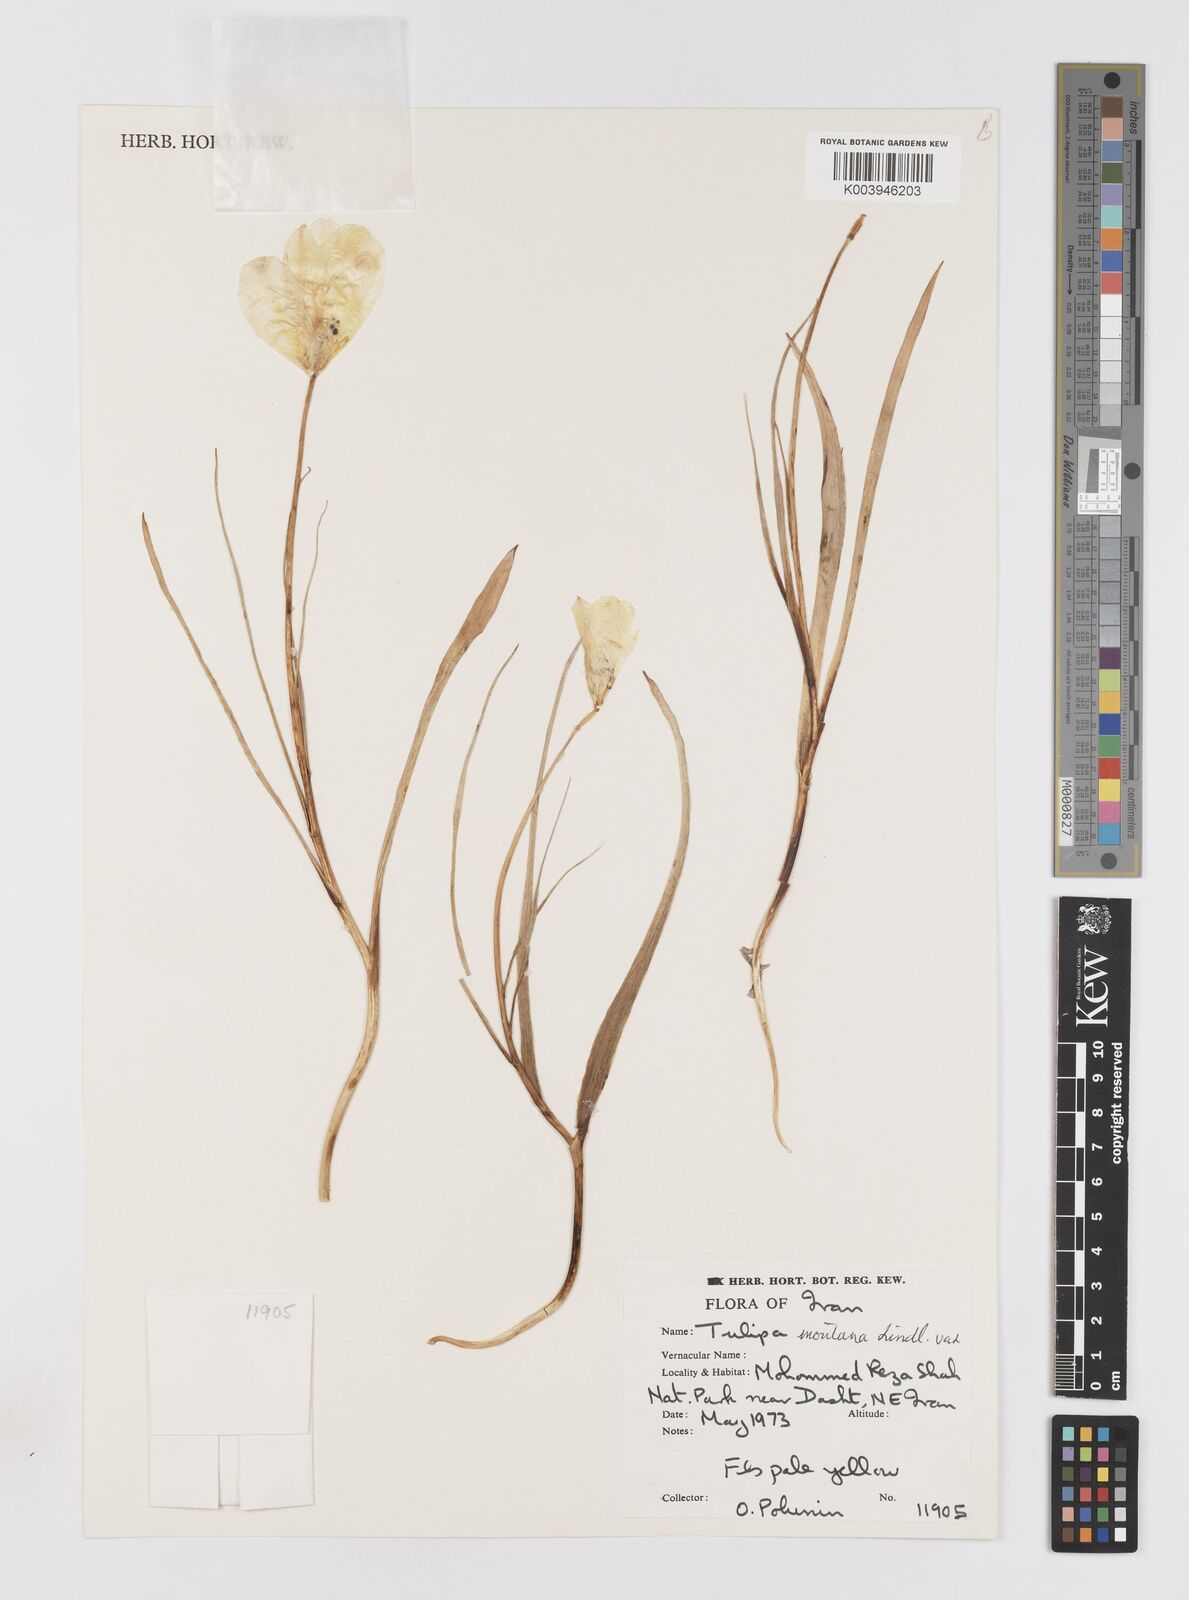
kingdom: Plantae
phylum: Tracheophyta
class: Liliopsida
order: Liliales
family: Liliaceae
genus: Tulipa
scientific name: Tulipa montana
